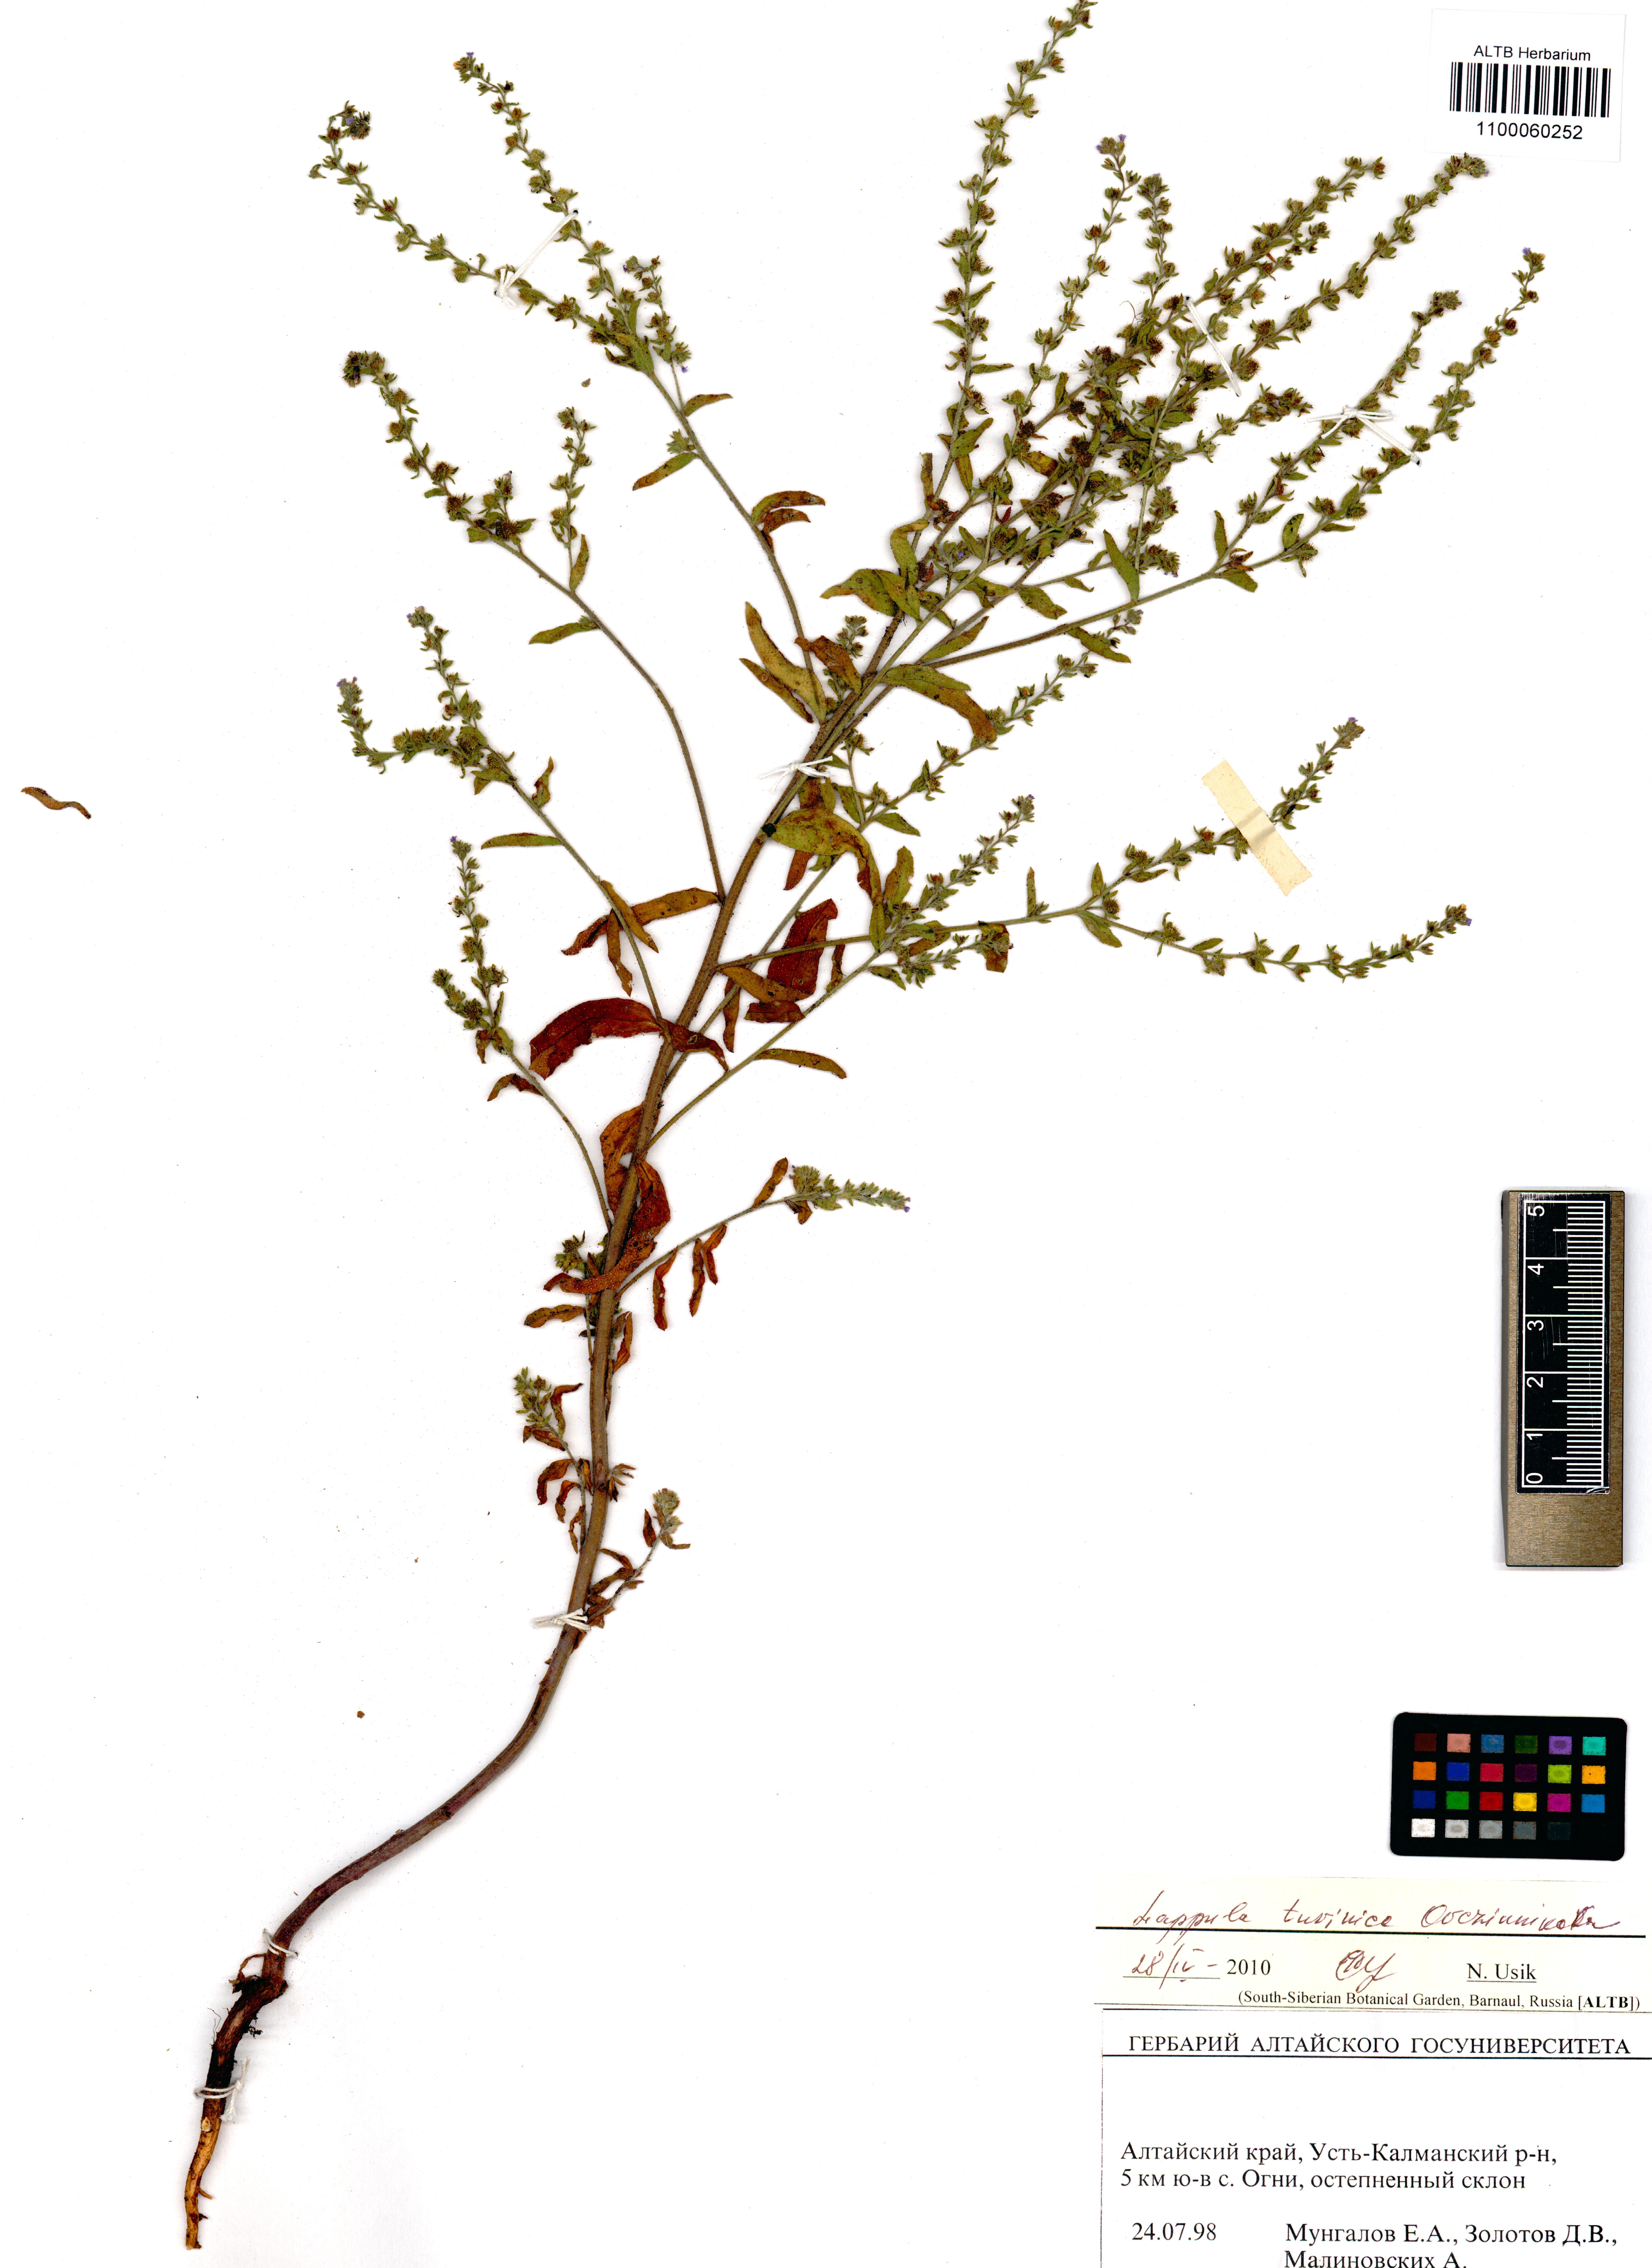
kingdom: Plantae
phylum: Tracheophyta
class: Magnoliopsida
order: Boraginales
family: Boraginaceae
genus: Lappula
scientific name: Lappula tuvinica
